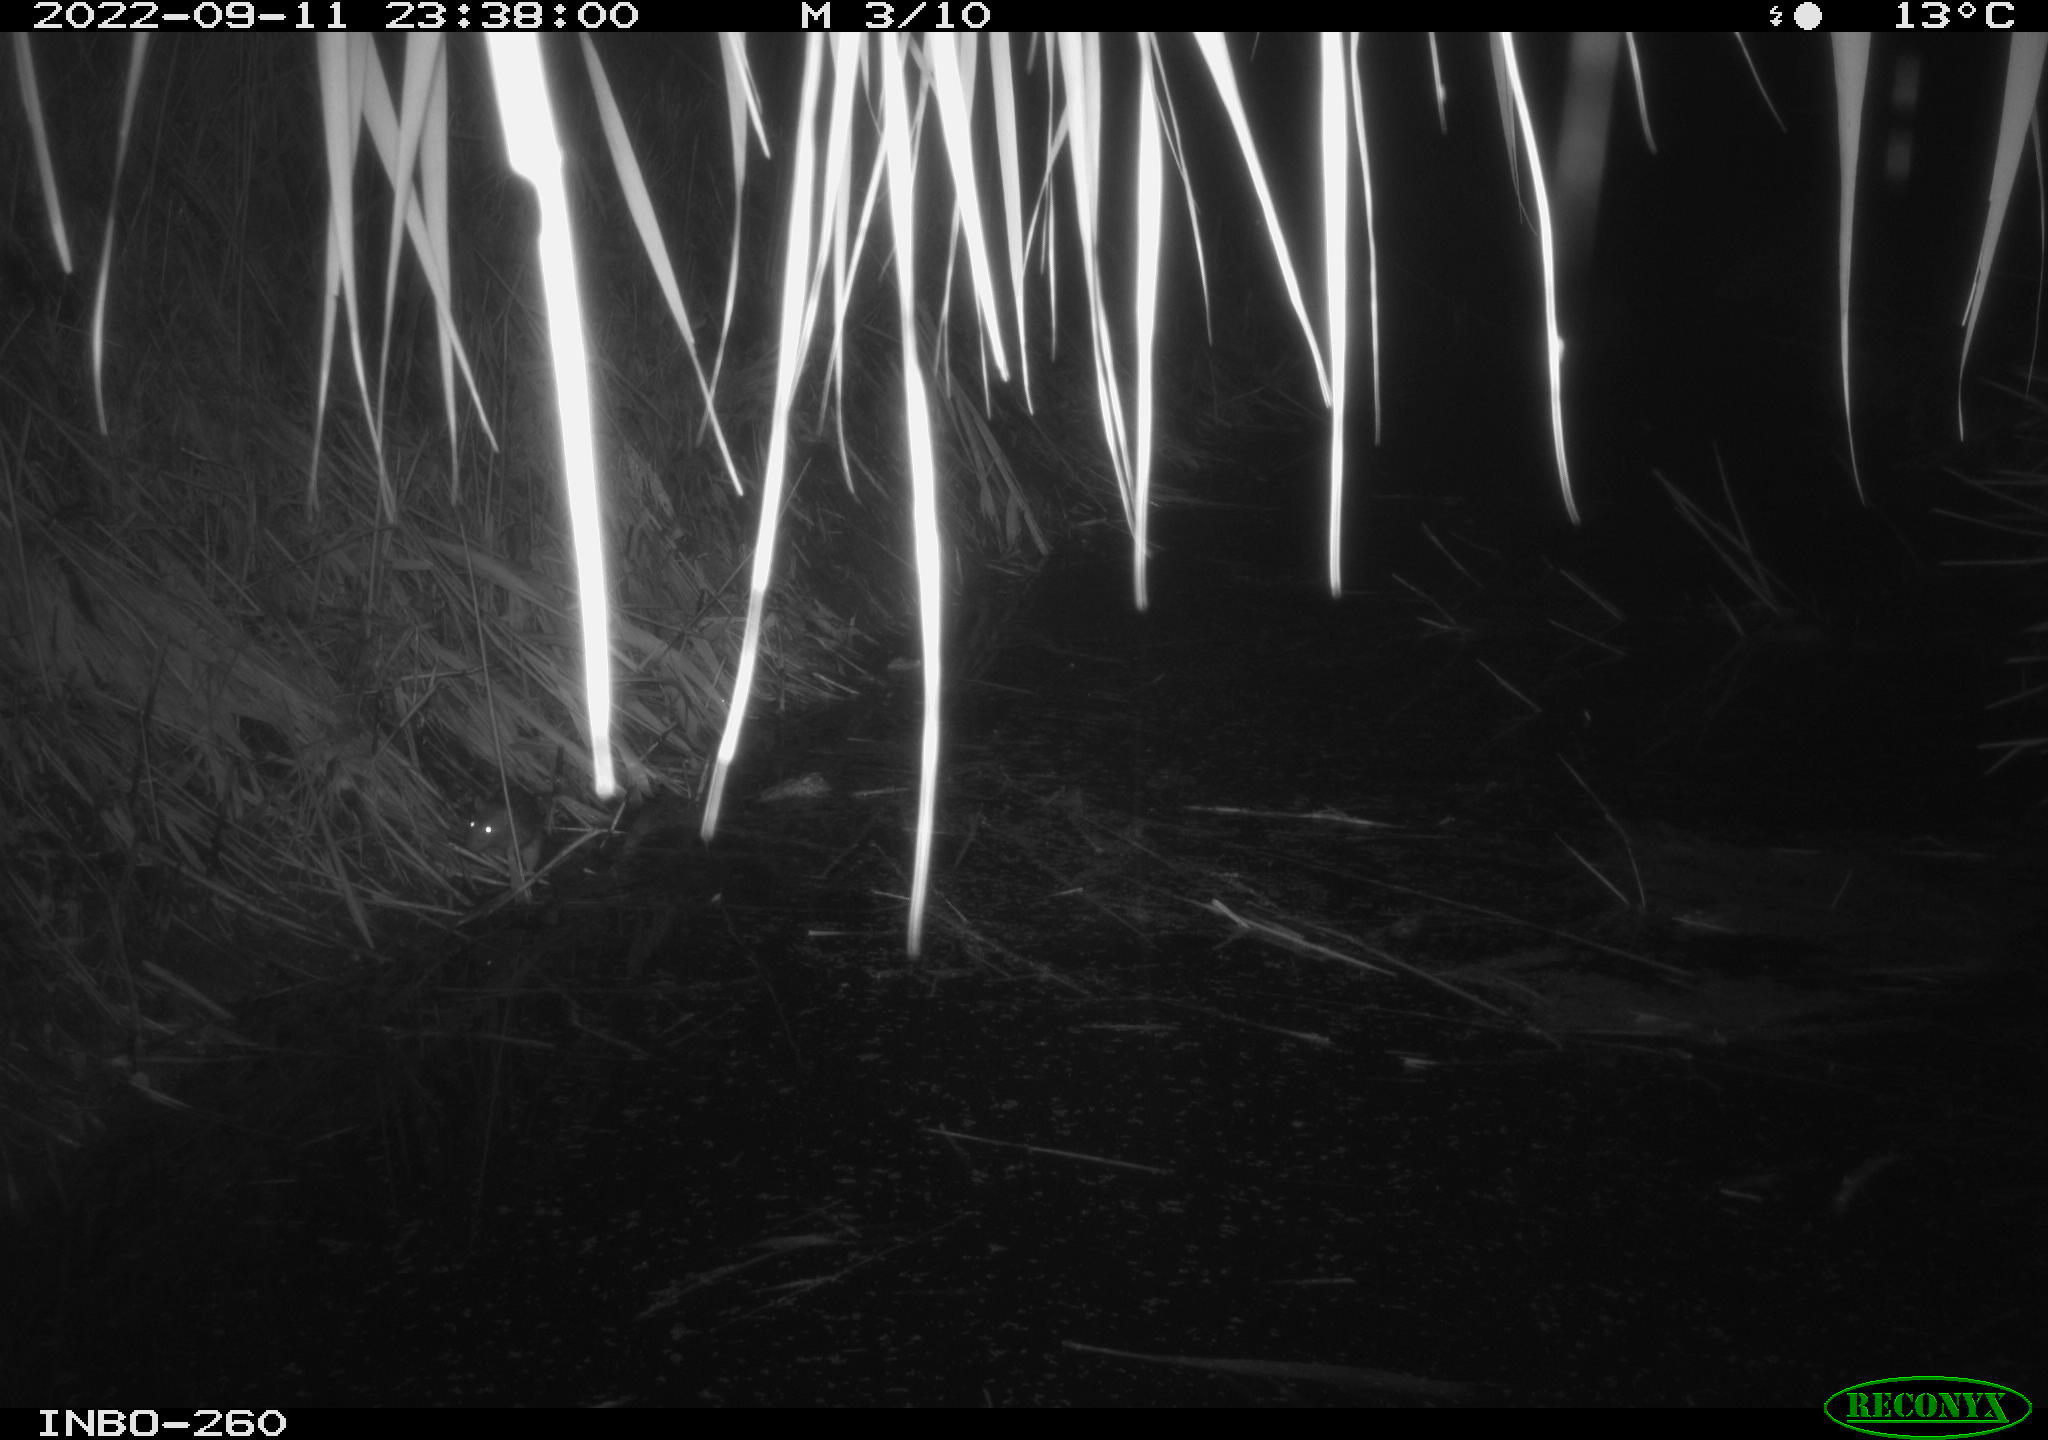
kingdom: Animalia
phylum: Chordata
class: Mammalia
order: Rodentia
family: Muridae
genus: Rattus
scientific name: Rattus norvegicus
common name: Brown rat
